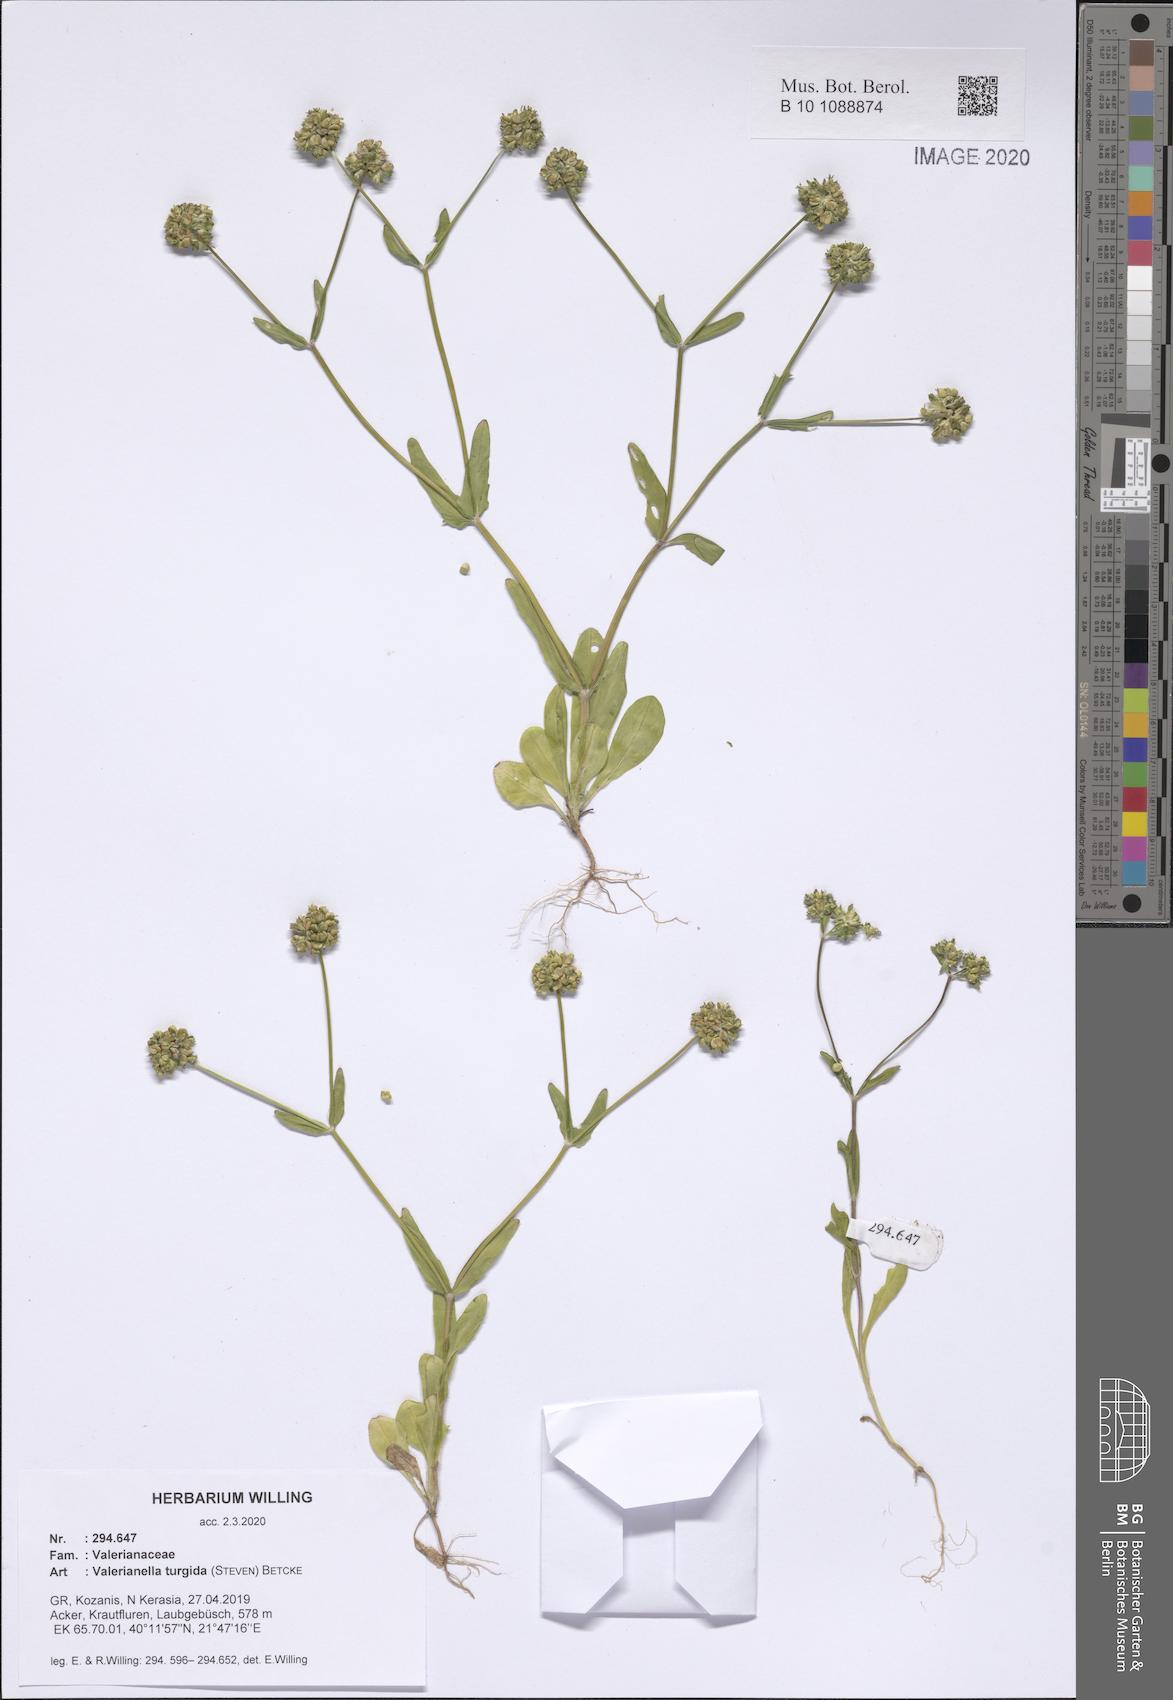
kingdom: Plantae
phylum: Tracheophyta
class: Magnoliopsida
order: Dipsacales
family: Caprifoliaceae
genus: Valerianella
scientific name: Valerianella turgida
